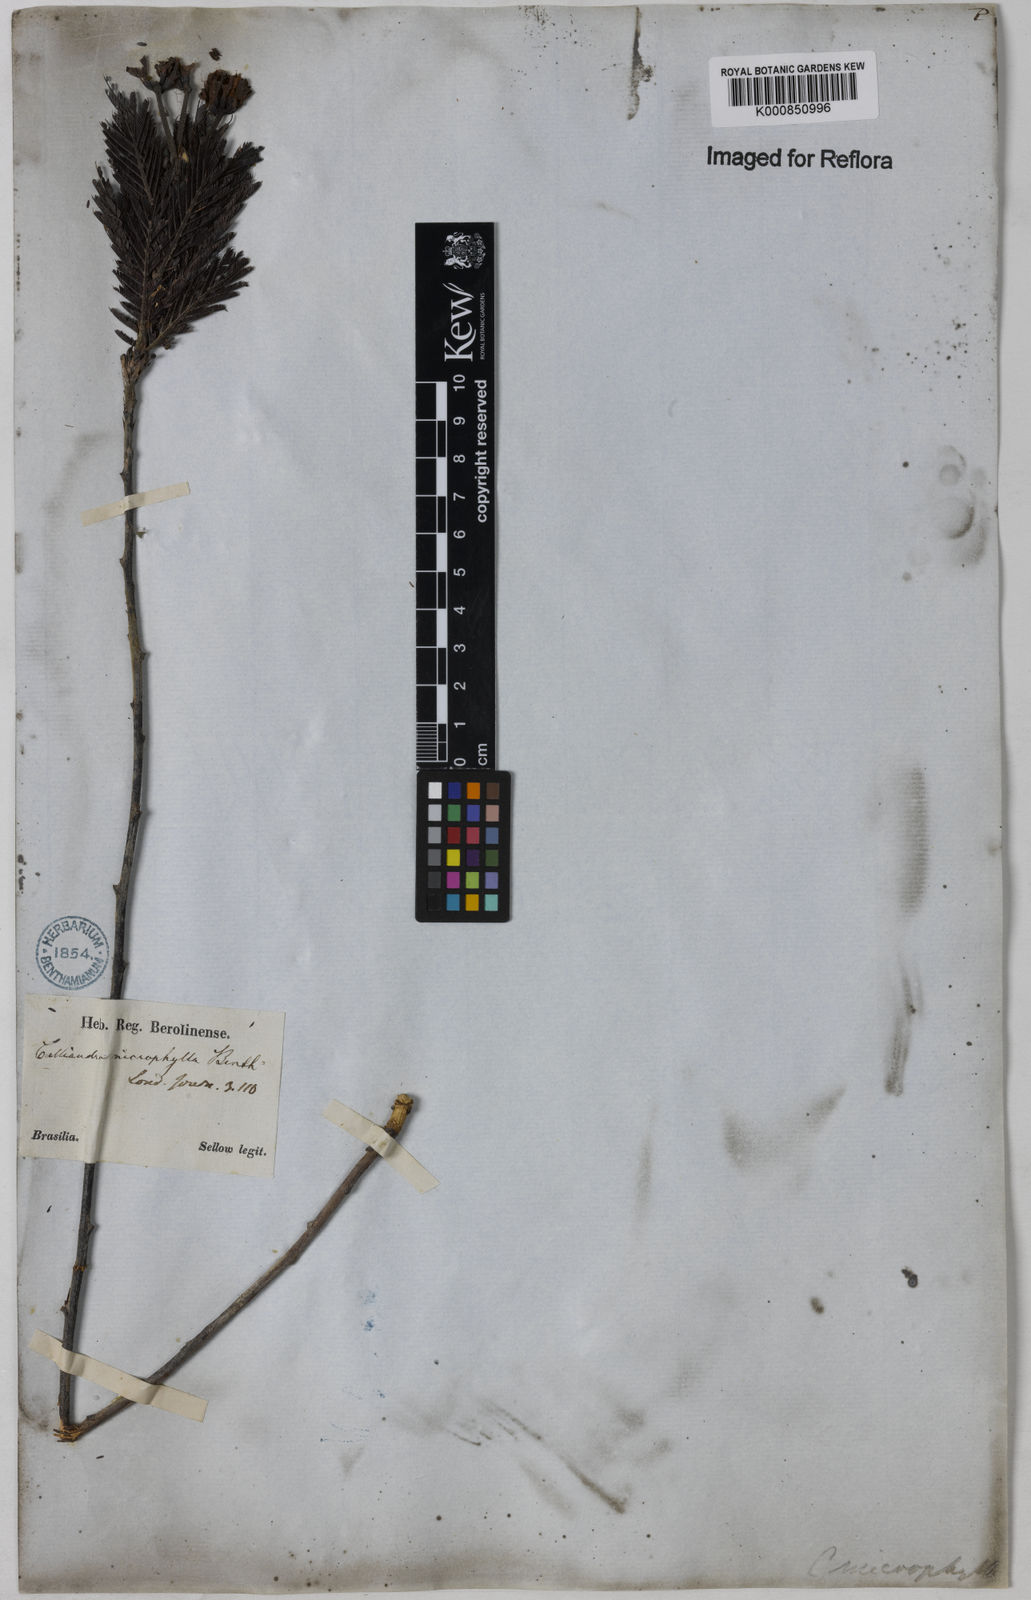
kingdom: Plantae
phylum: Tracheophyta
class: Magnoliopsida
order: Fabales
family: Fabaceae
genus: Calliandra
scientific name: Calliandra parvifolia
